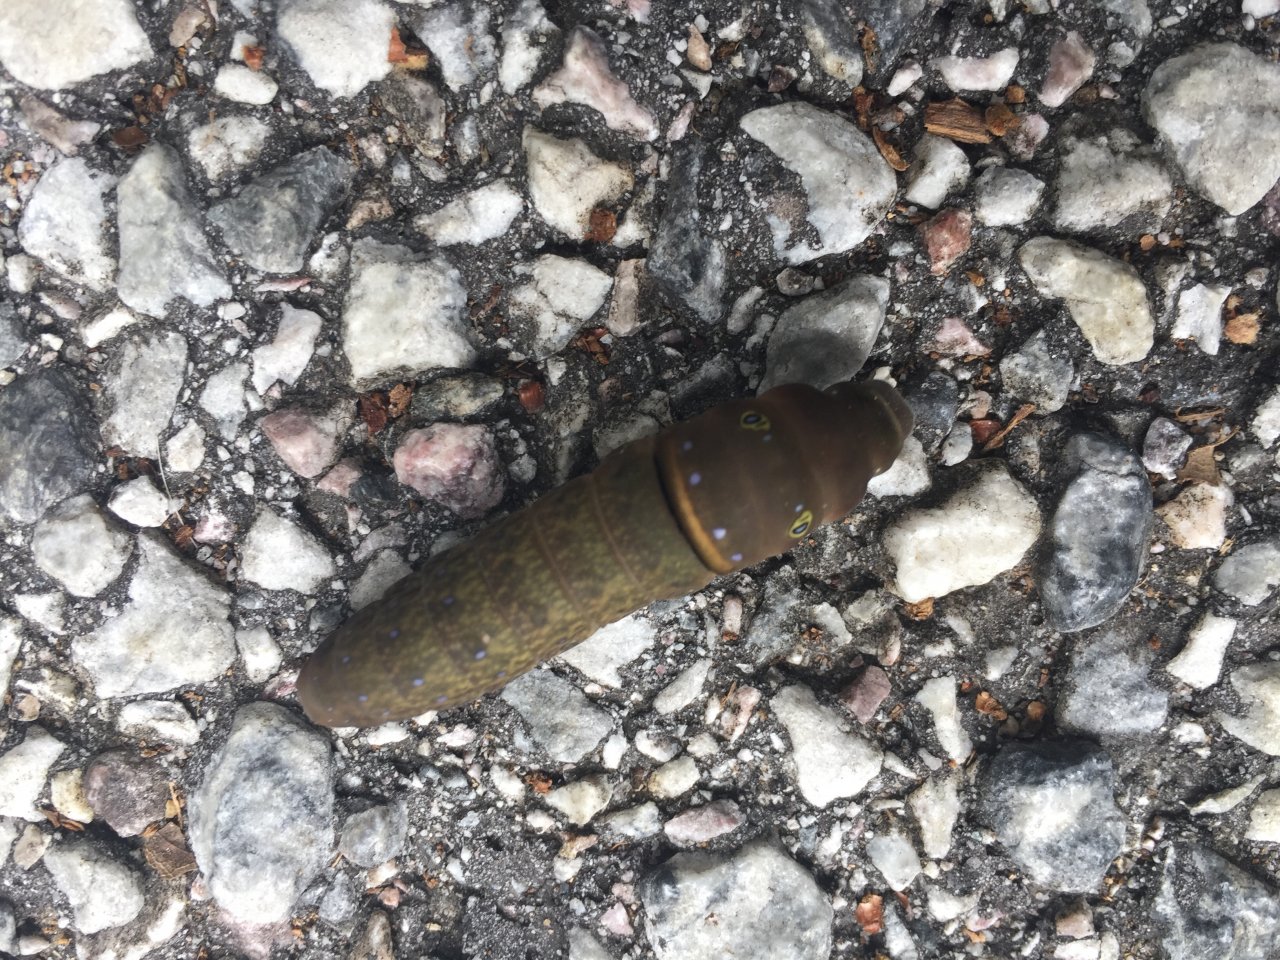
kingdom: Animalia
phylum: Arthropoda
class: Insecta
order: Lepidoptera
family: Papilionidae
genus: Pterourus
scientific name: Pterourus glaucus
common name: Eastern Tiger Swallowtail
